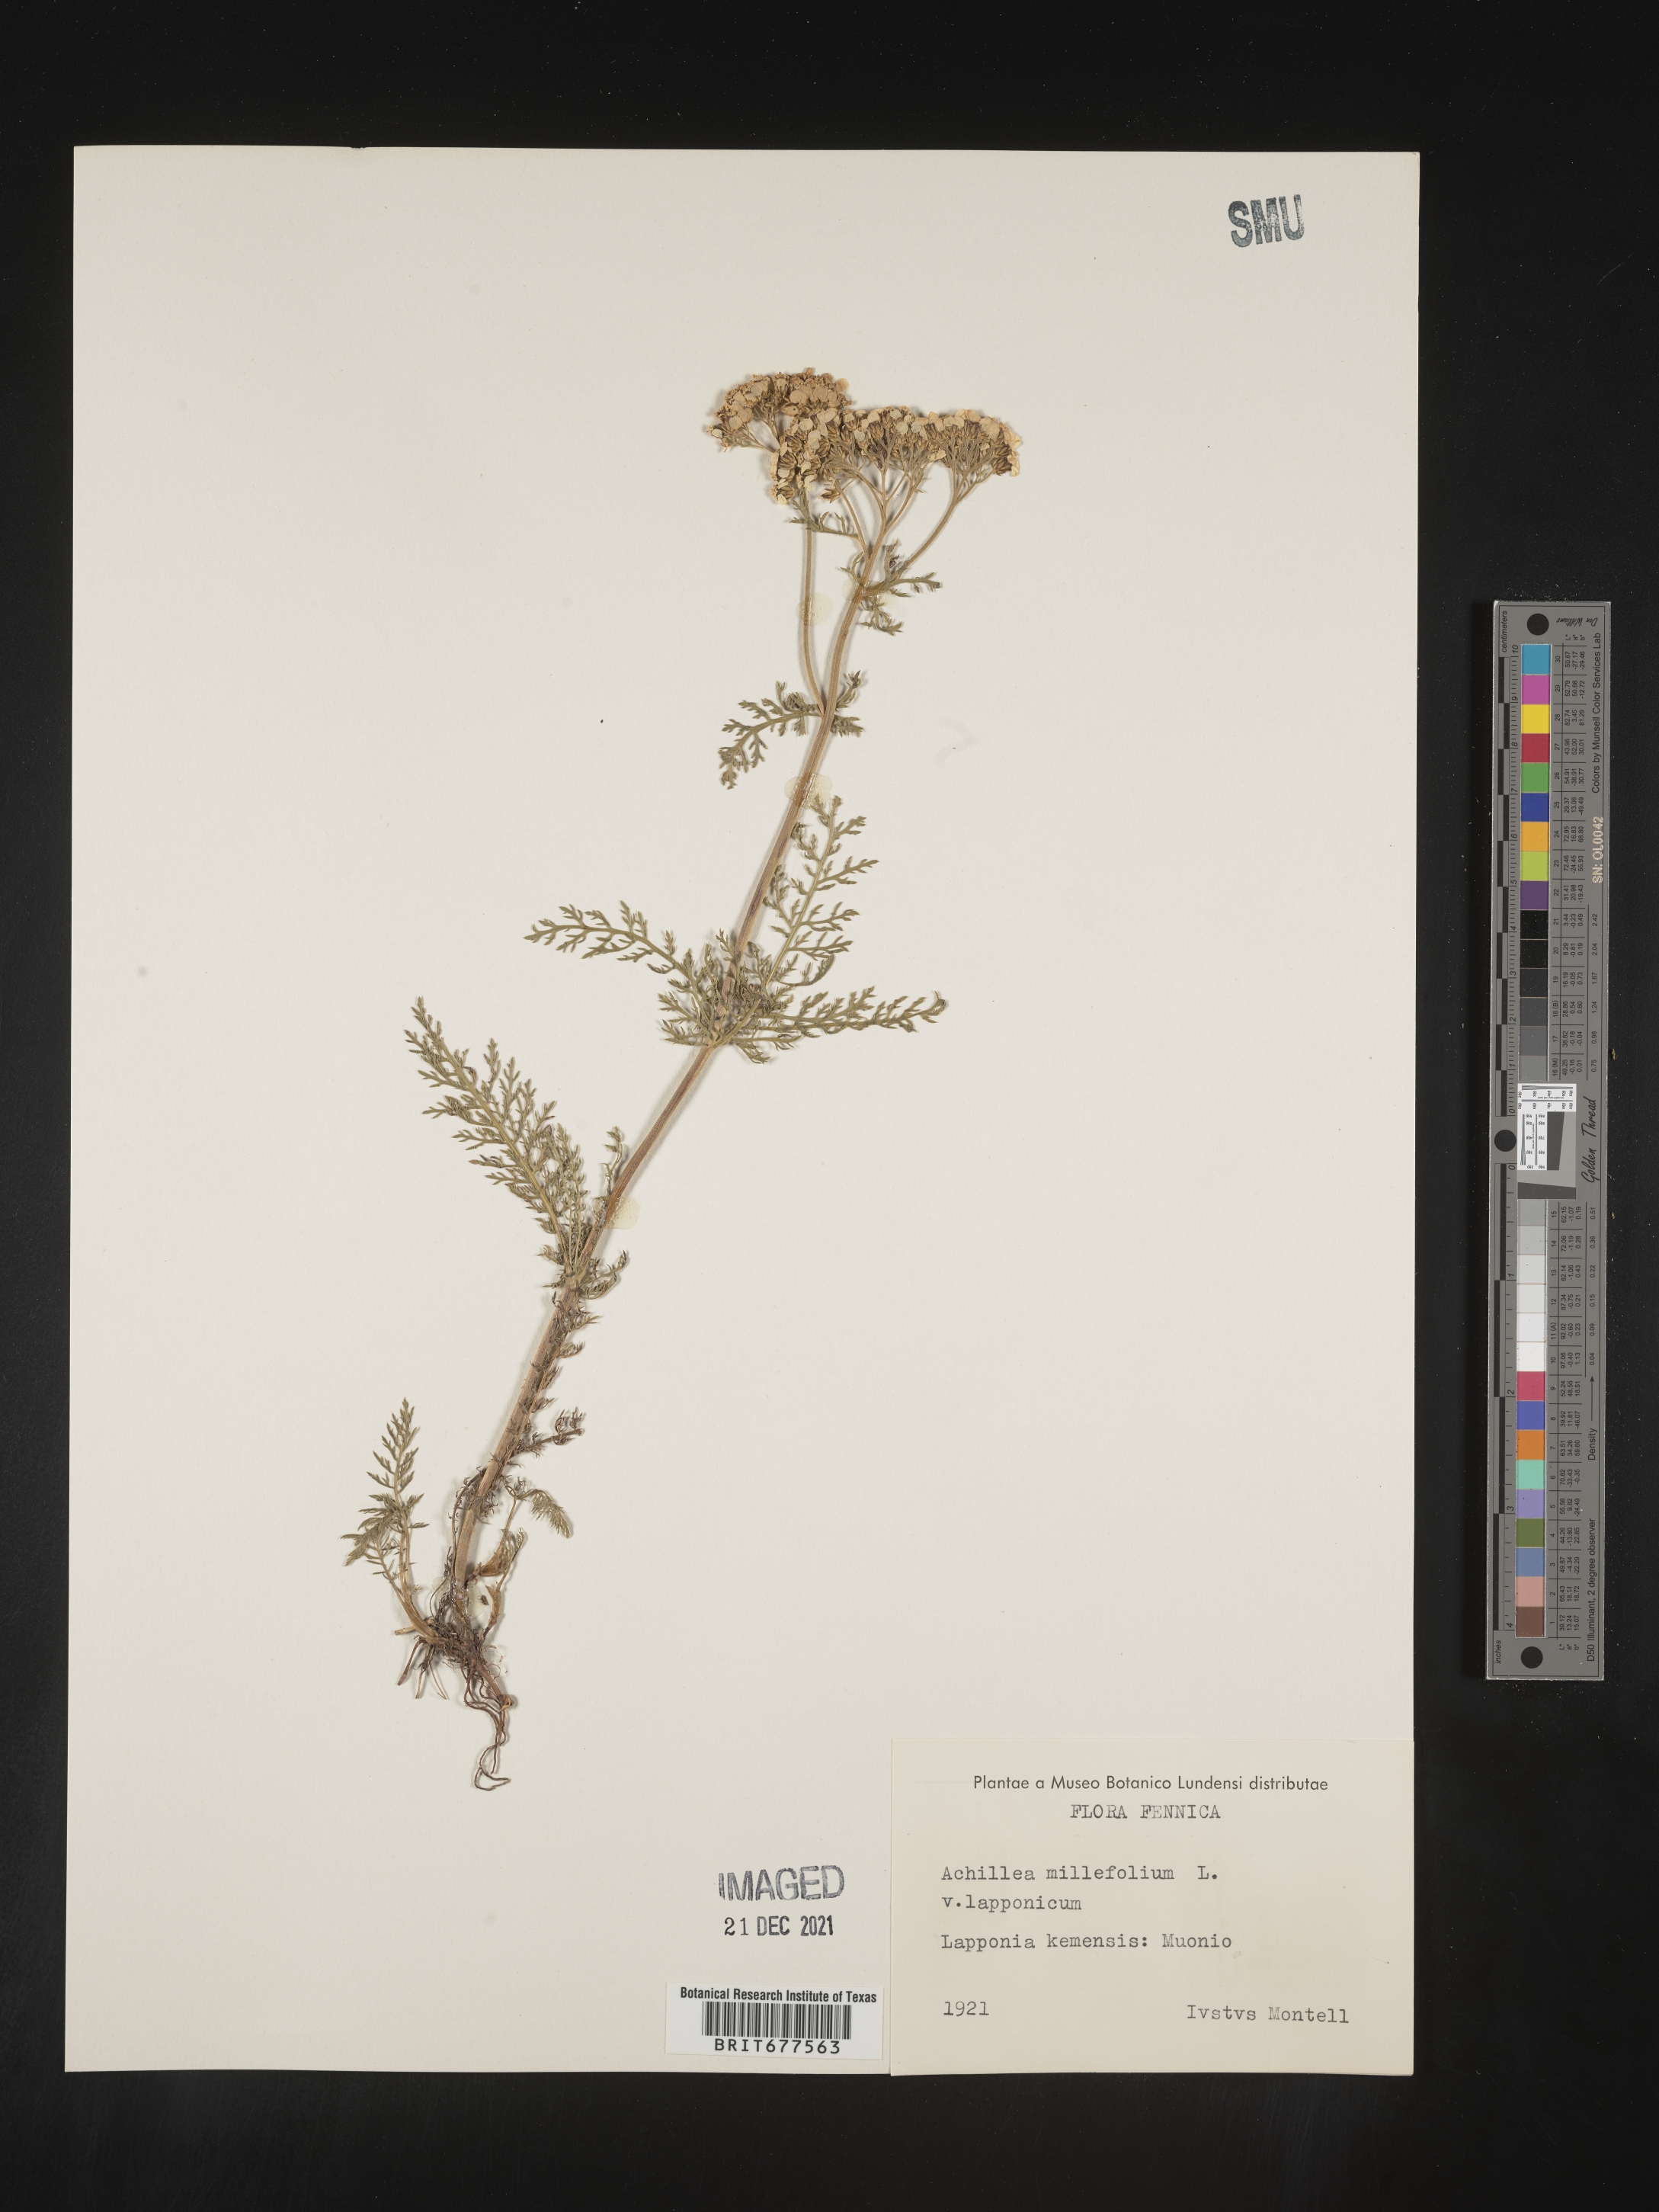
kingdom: Plantae
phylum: Tracheophyta
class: Magnoliopsida
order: Asterales
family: Asteraceae
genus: Achillea
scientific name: Achillea millefolium
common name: Yarrow
